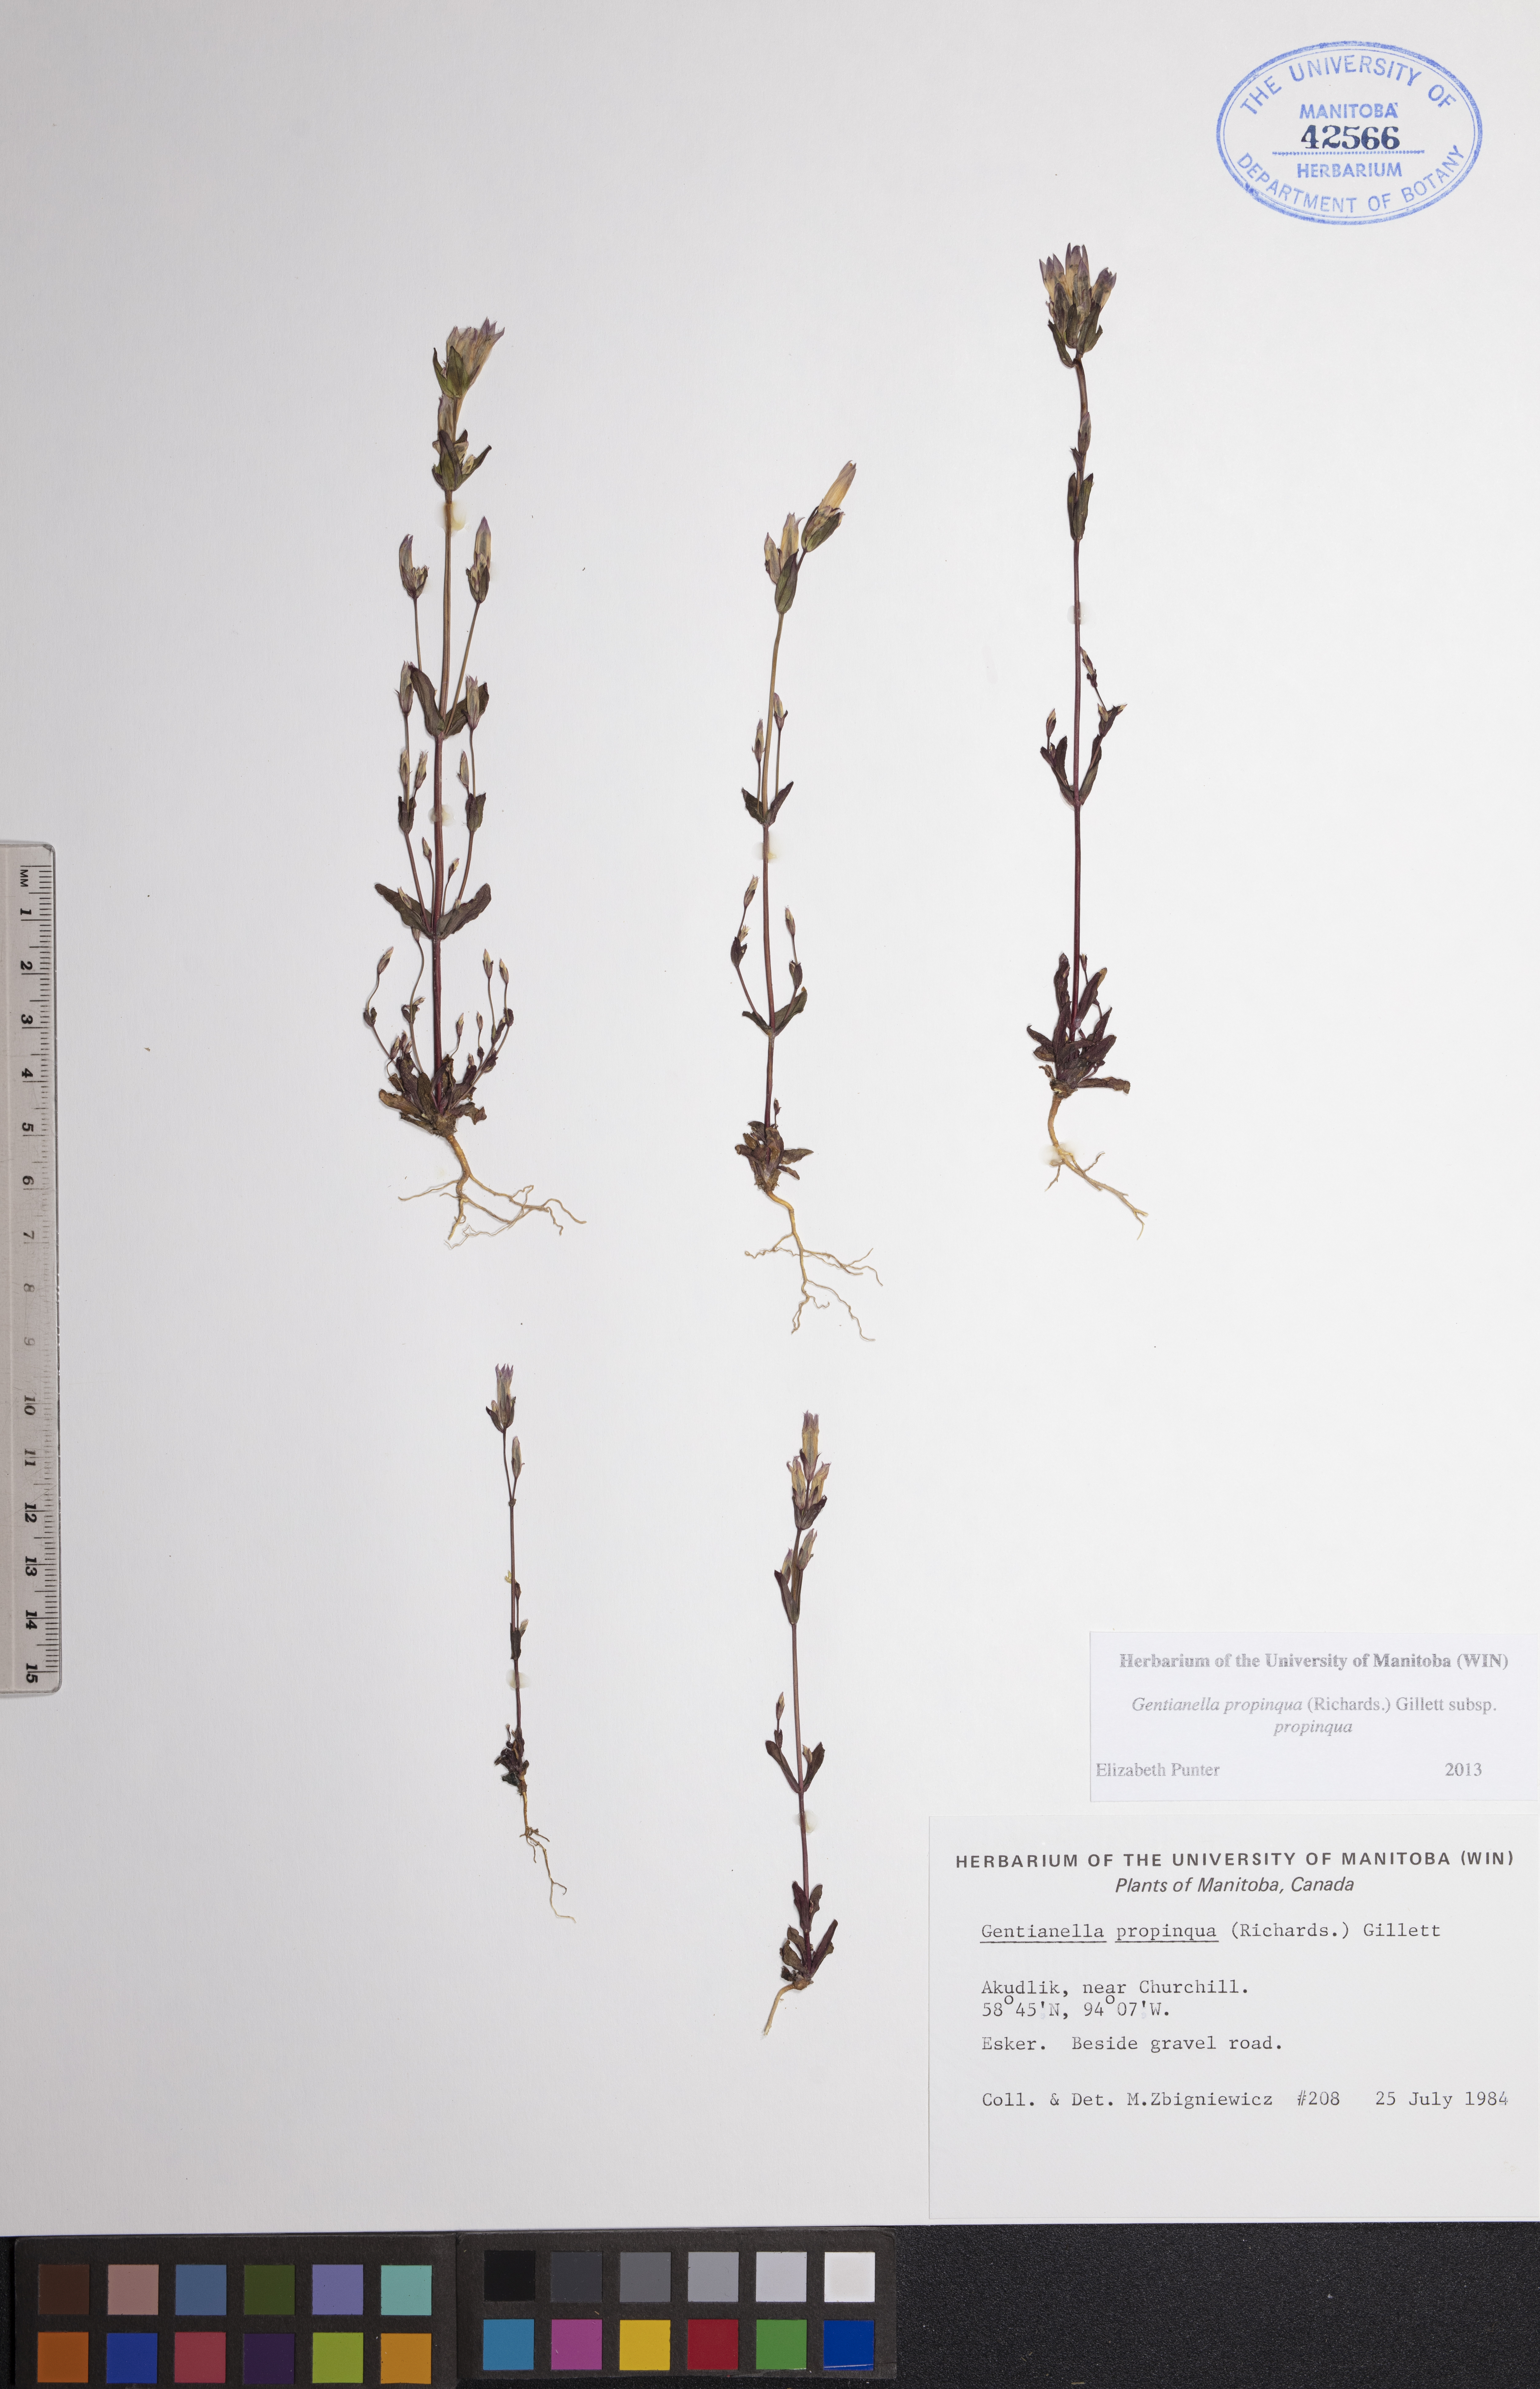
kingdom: Plantae
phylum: Tracheophyta
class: Magnoliopsida
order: Gentianales
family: Gentianaceae
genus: Gentianella
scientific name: Gentianella propinqua
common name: Four-parted dwarf-gentian
